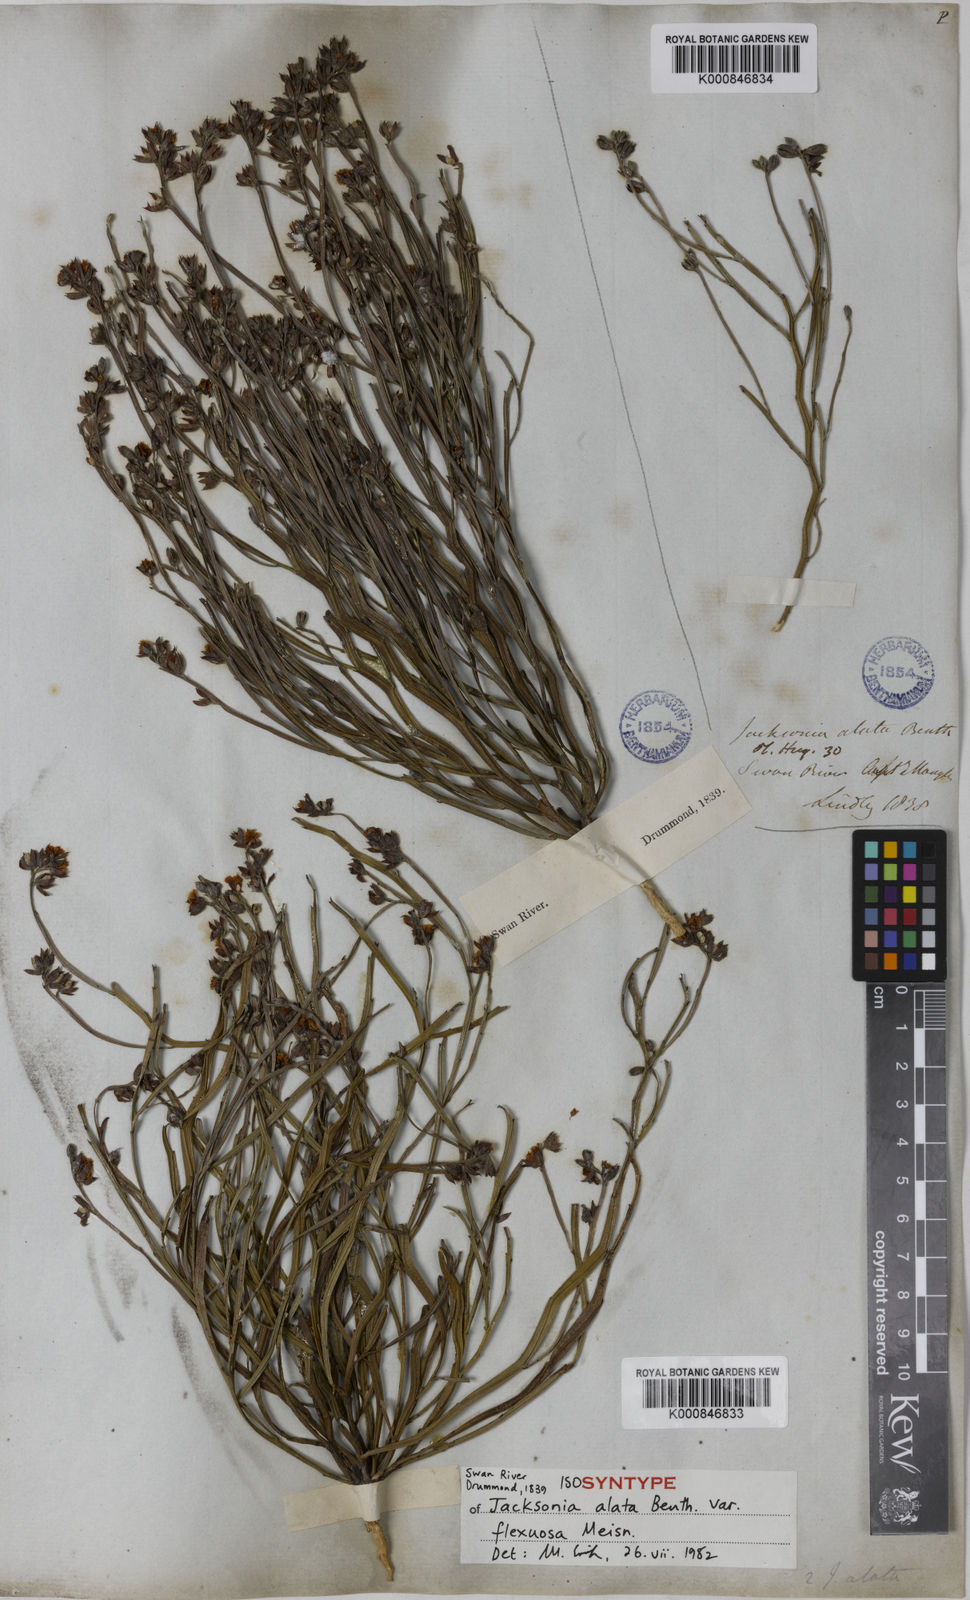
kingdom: Plantae
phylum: Tracheophyta
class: Magnoliopsida
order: Fabales
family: Fabaceae
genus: Jacksonia
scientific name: Jacksonia alata
